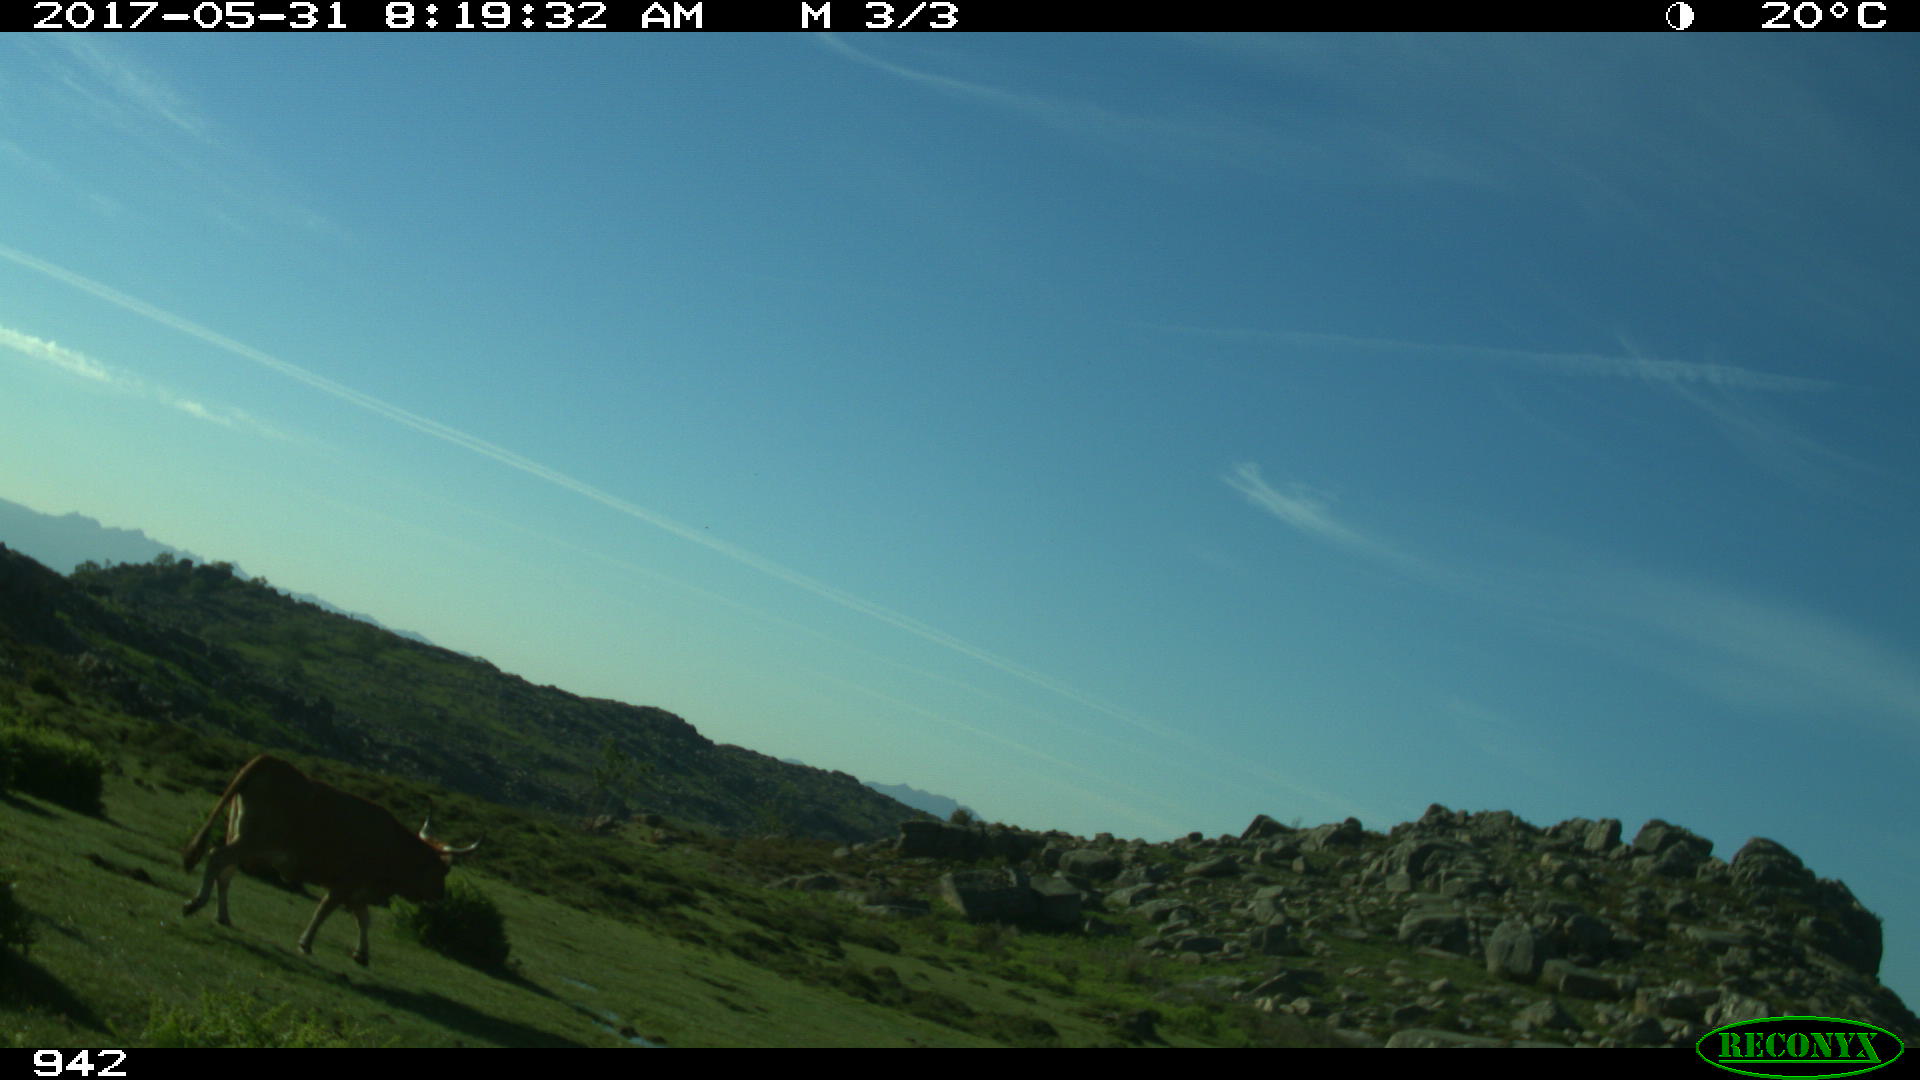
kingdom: Animalia
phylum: Chordata
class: Mammalia
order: Artiodactyla
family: Bovidae
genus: Bos
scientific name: Bos taurus
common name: Domesticated cattle
